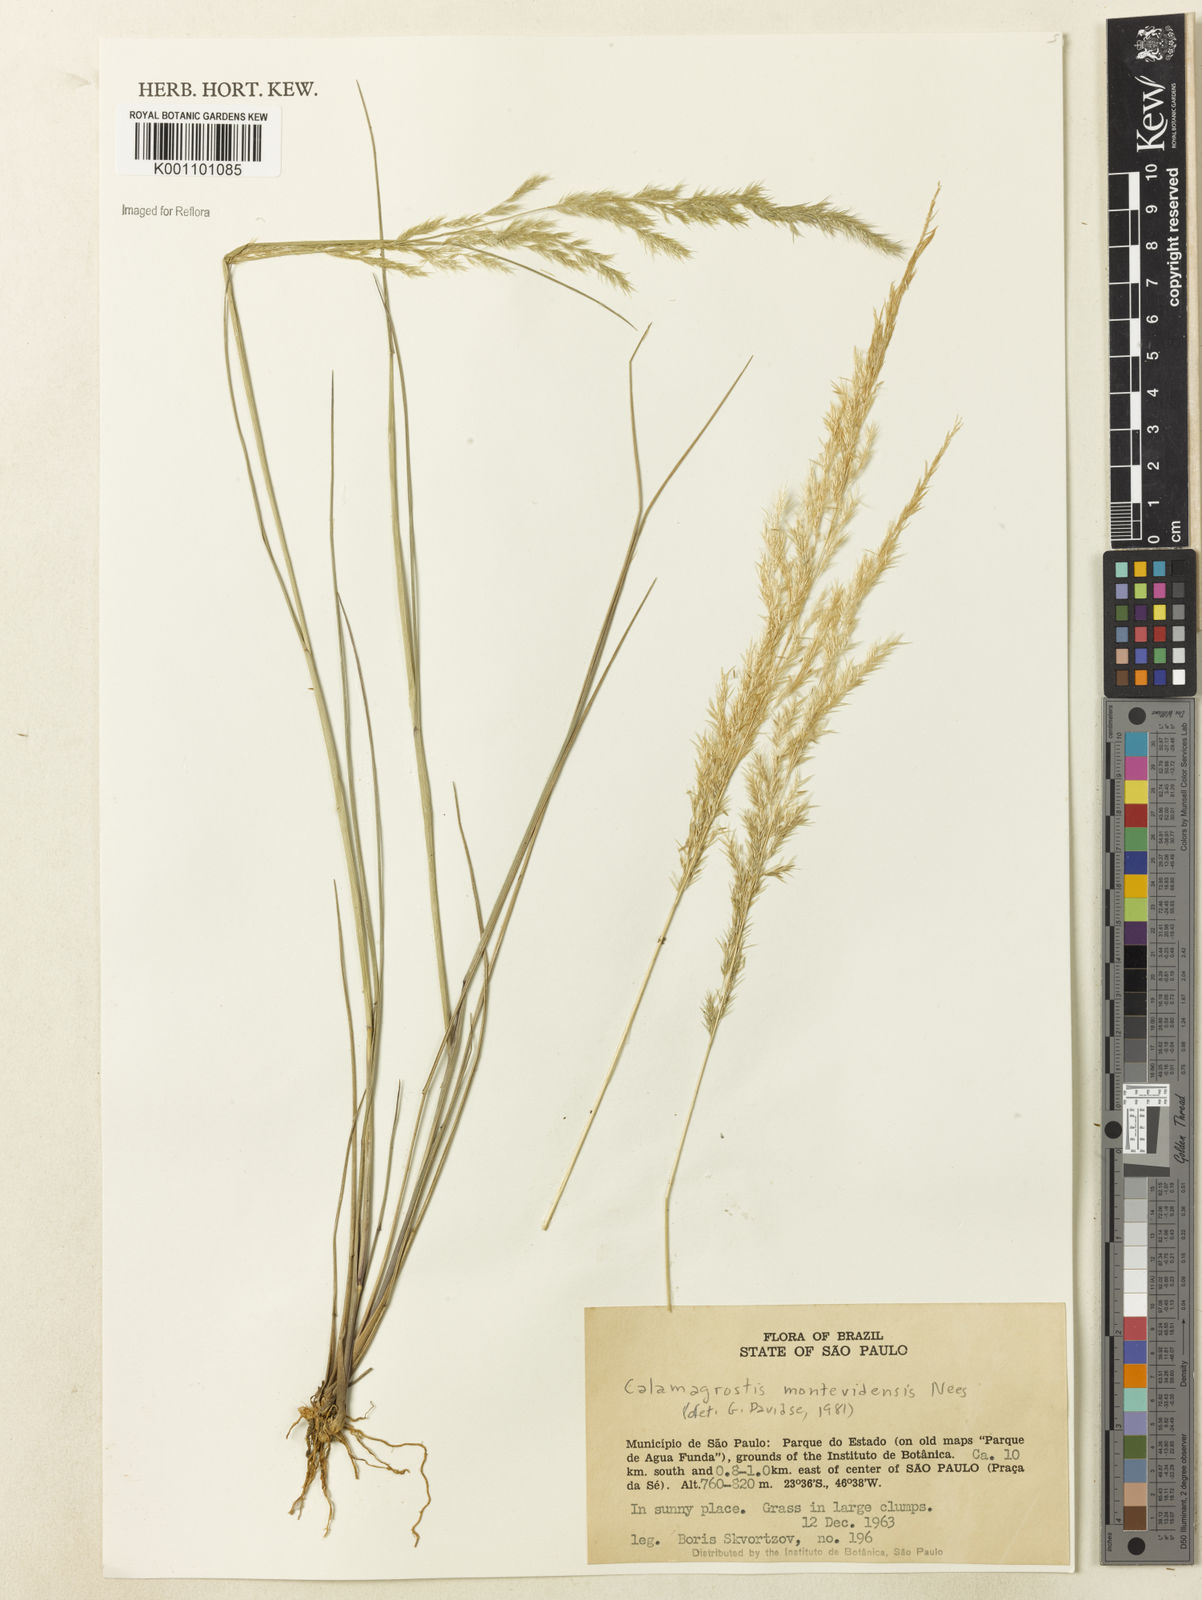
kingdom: Plantae
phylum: Tracheophyta
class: Liliopsida
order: Poales
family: Poaceae
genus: Cinnagrostis
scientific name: Cinnagrostis viridiflavescens
